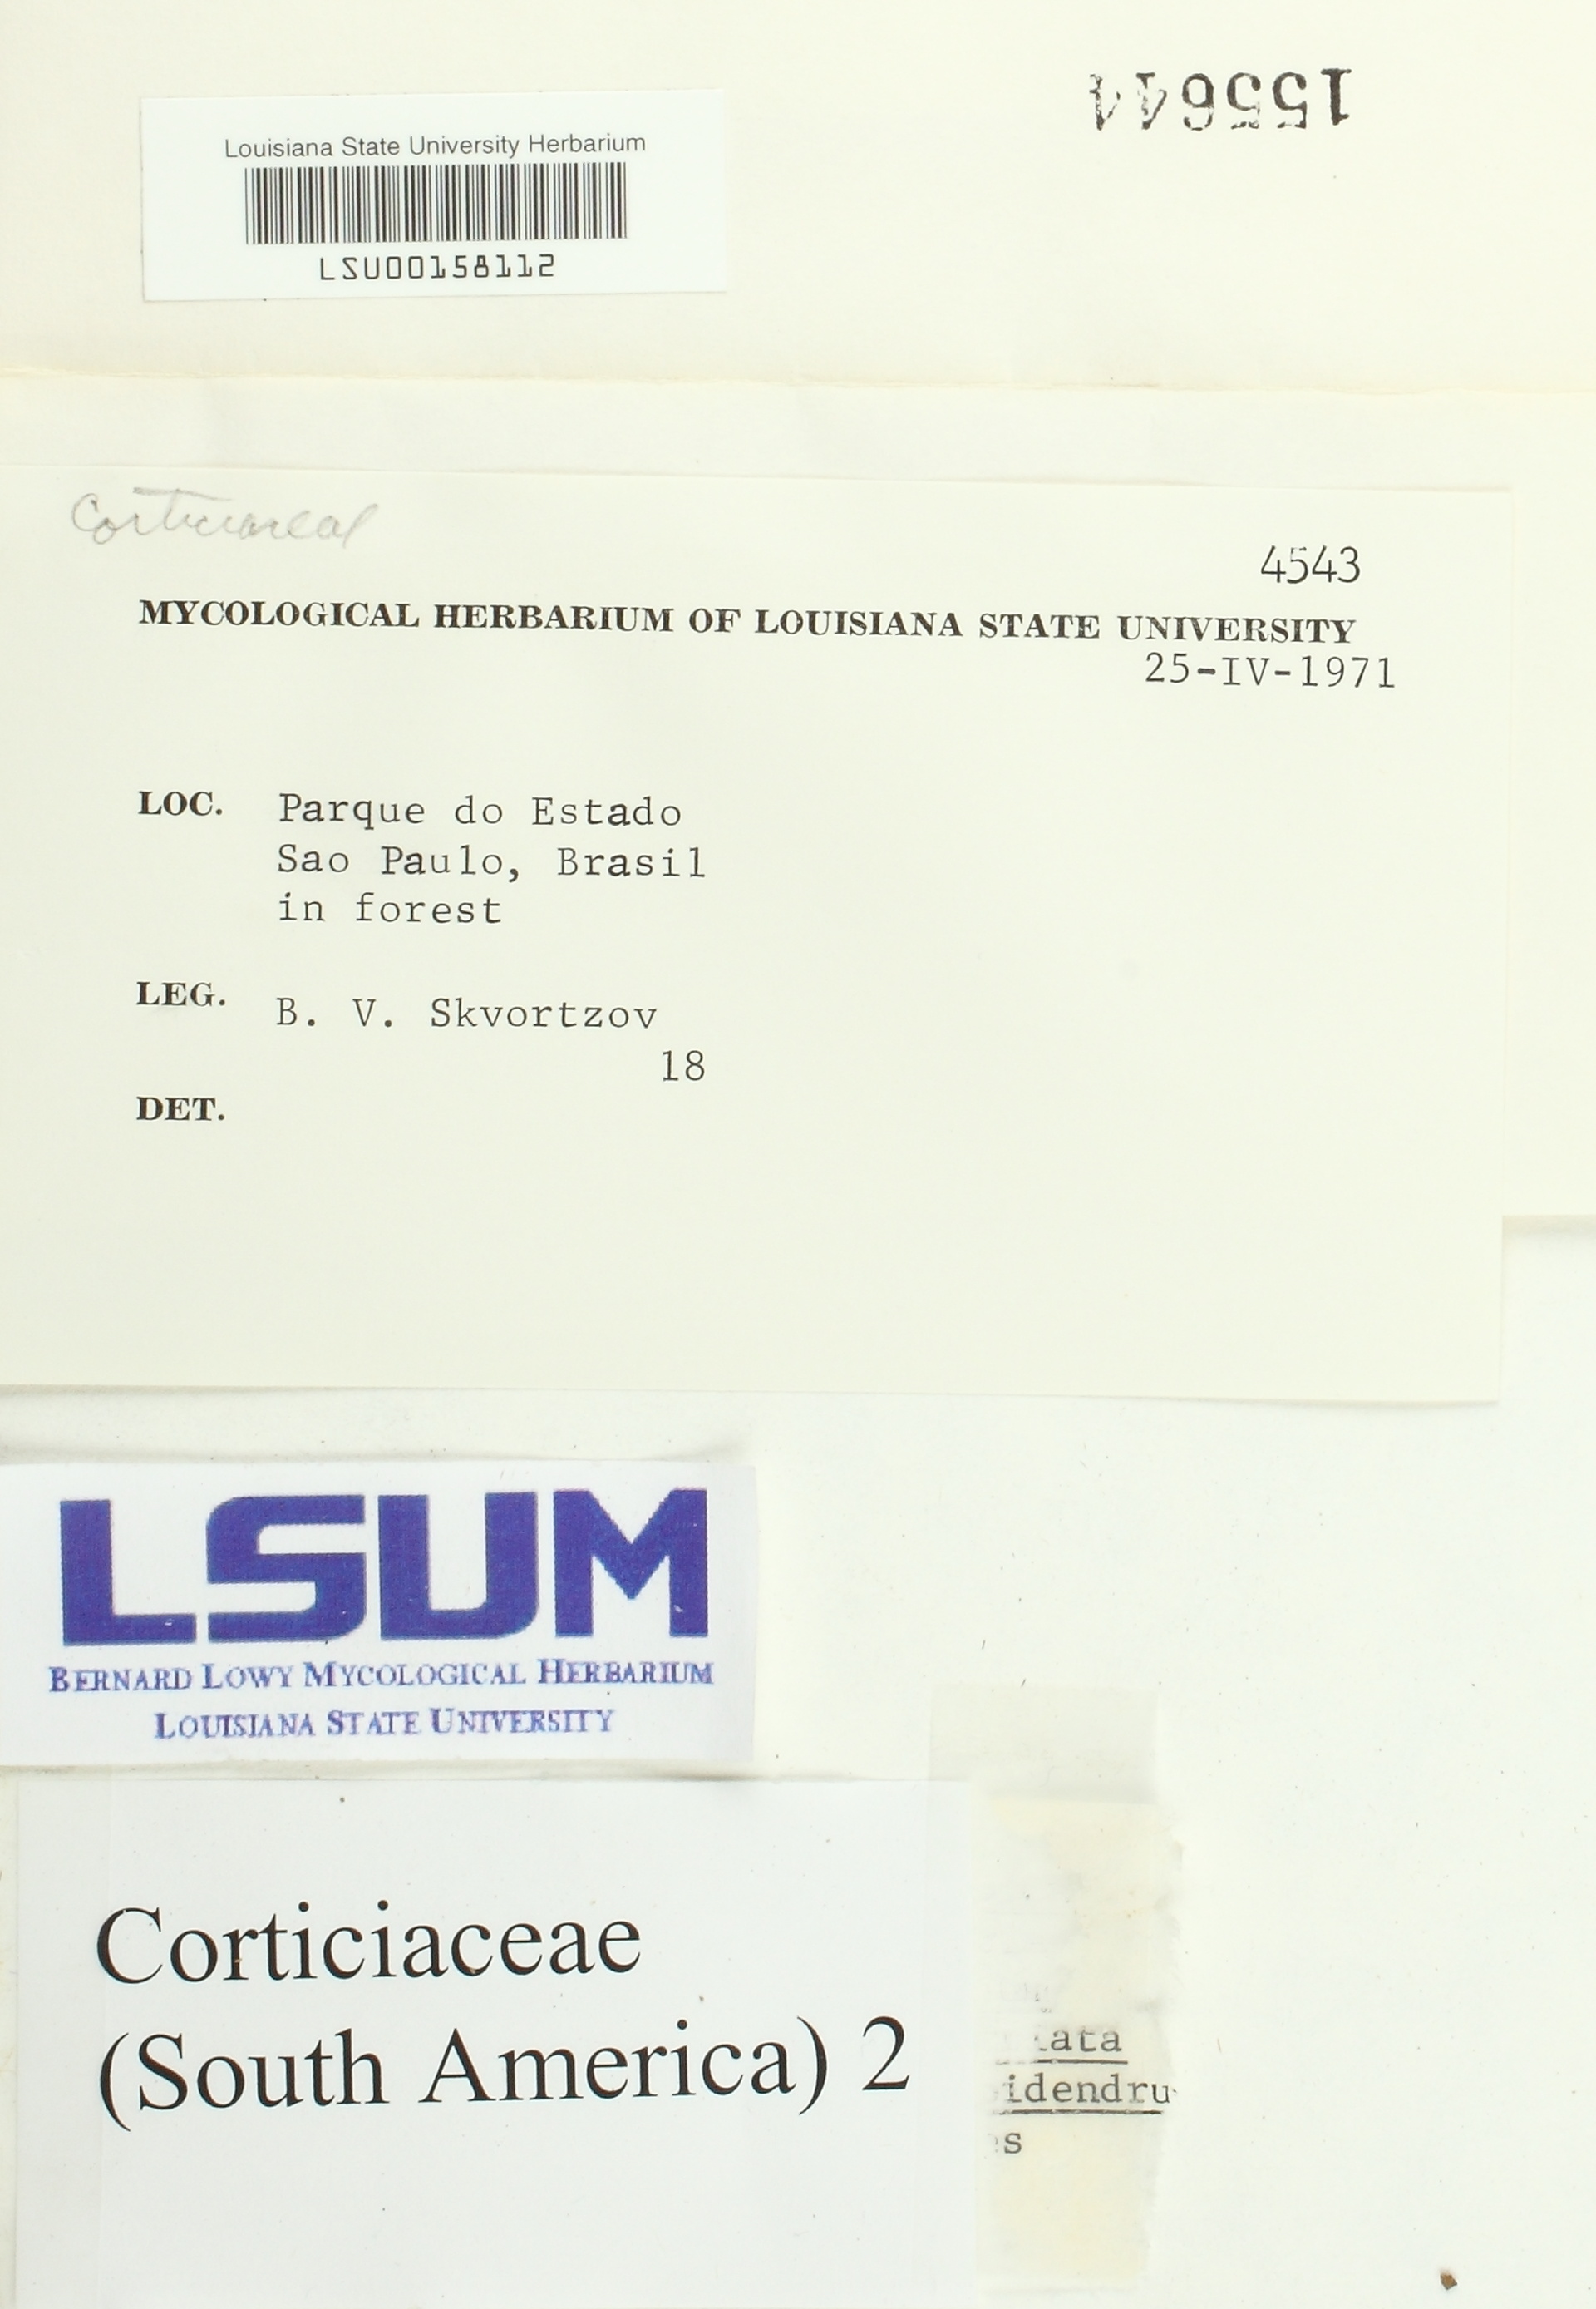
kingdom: Fungi
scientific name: Fungi
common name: Fungi
